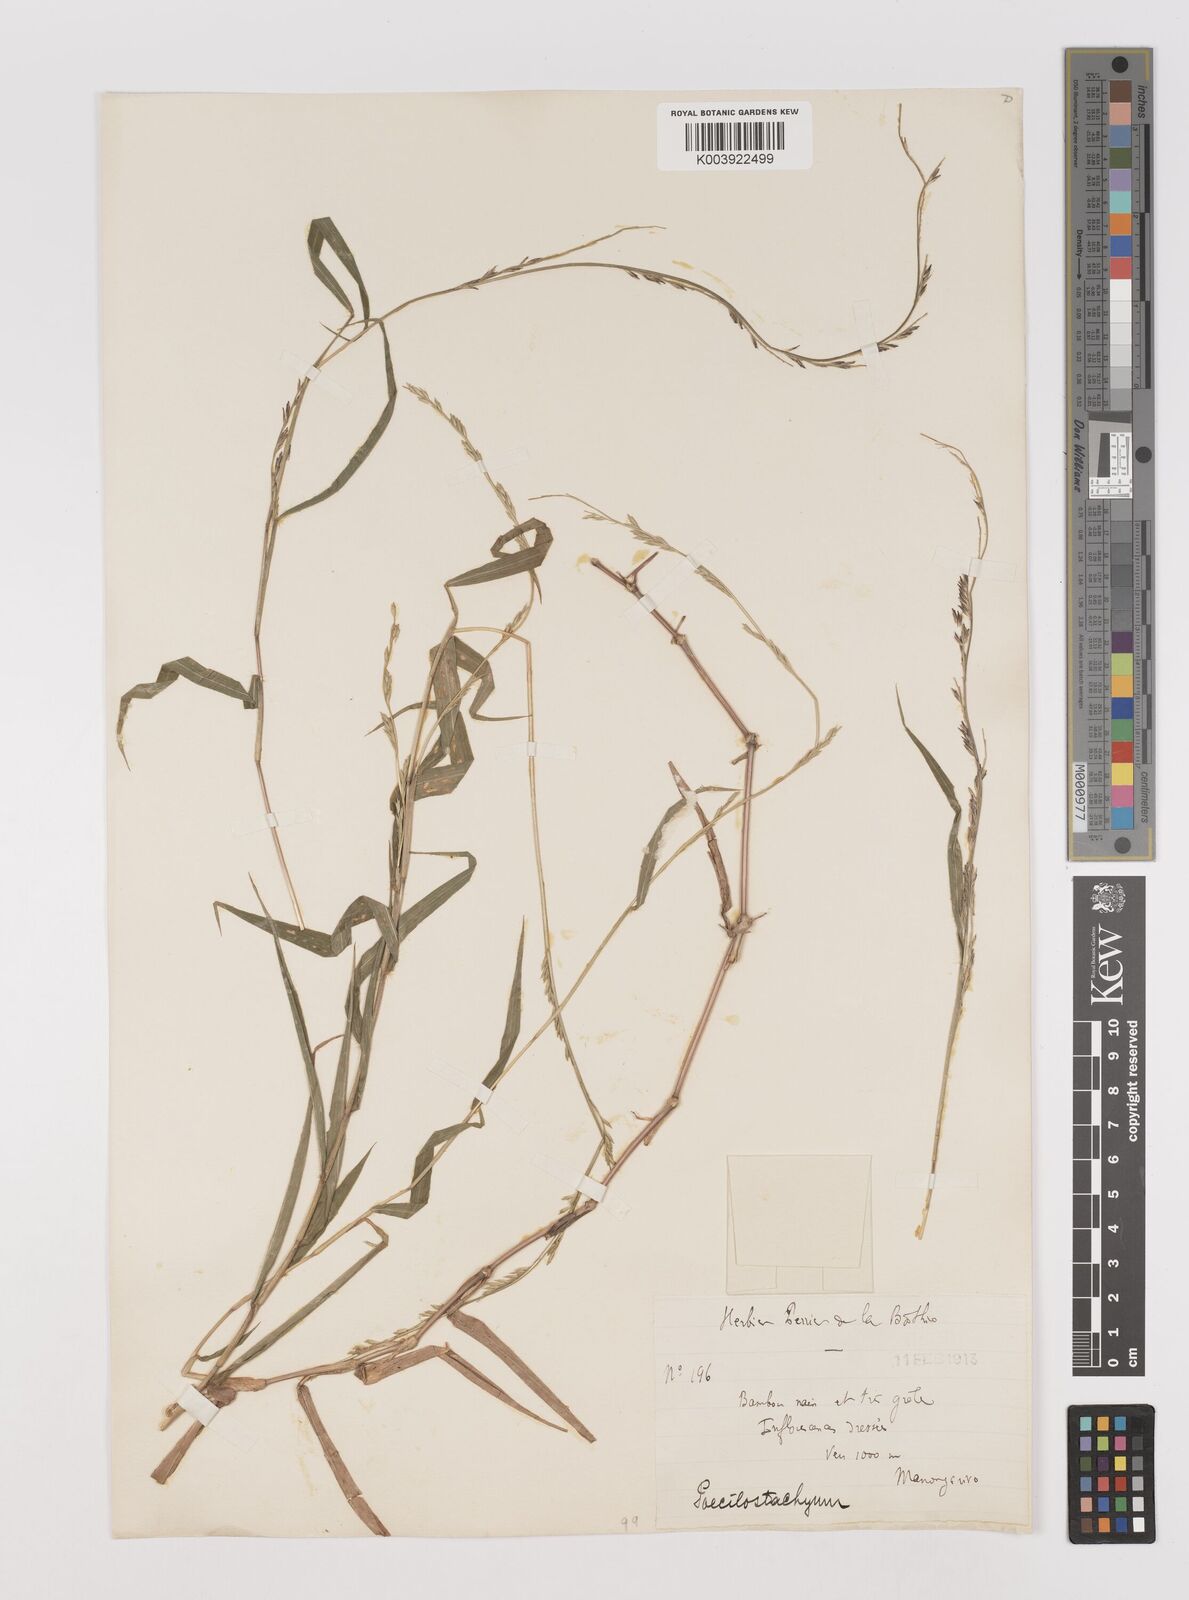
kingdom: Plantae
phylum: Tracheophyta
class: Liliopsida
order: Poales
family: Poaceae
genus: Poecilostachys
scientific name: Poecilostachys
